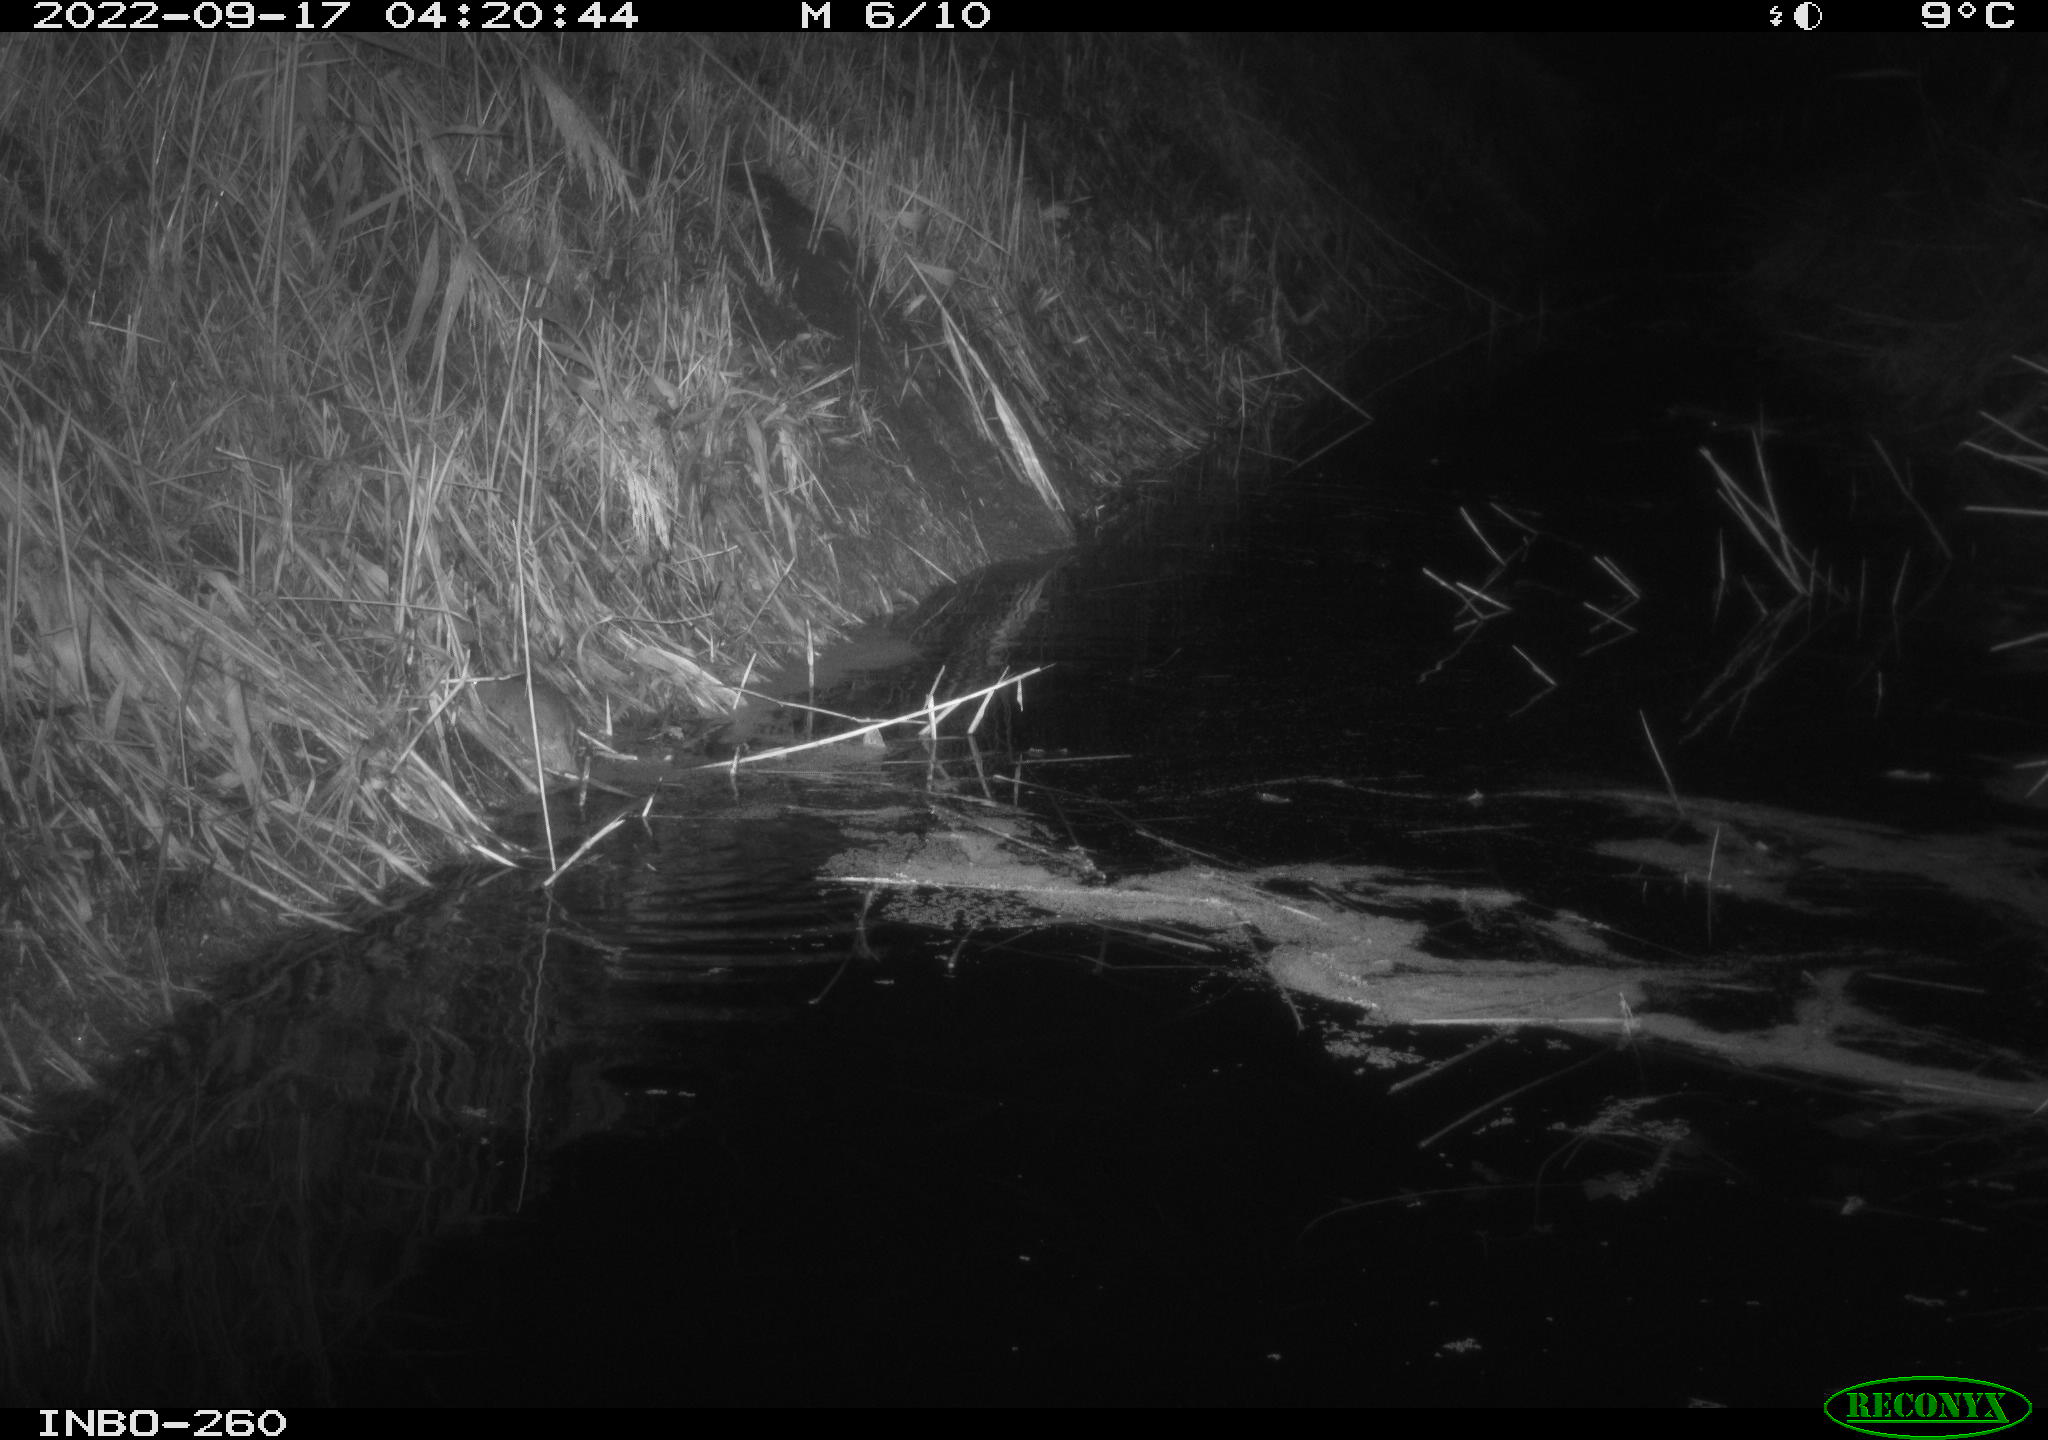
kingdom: Animalia
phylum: Chordata
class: Mammalia
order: Rodentia
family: Muridae
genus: Rattus
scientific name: Rattus norvegicus
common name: Brown rat
